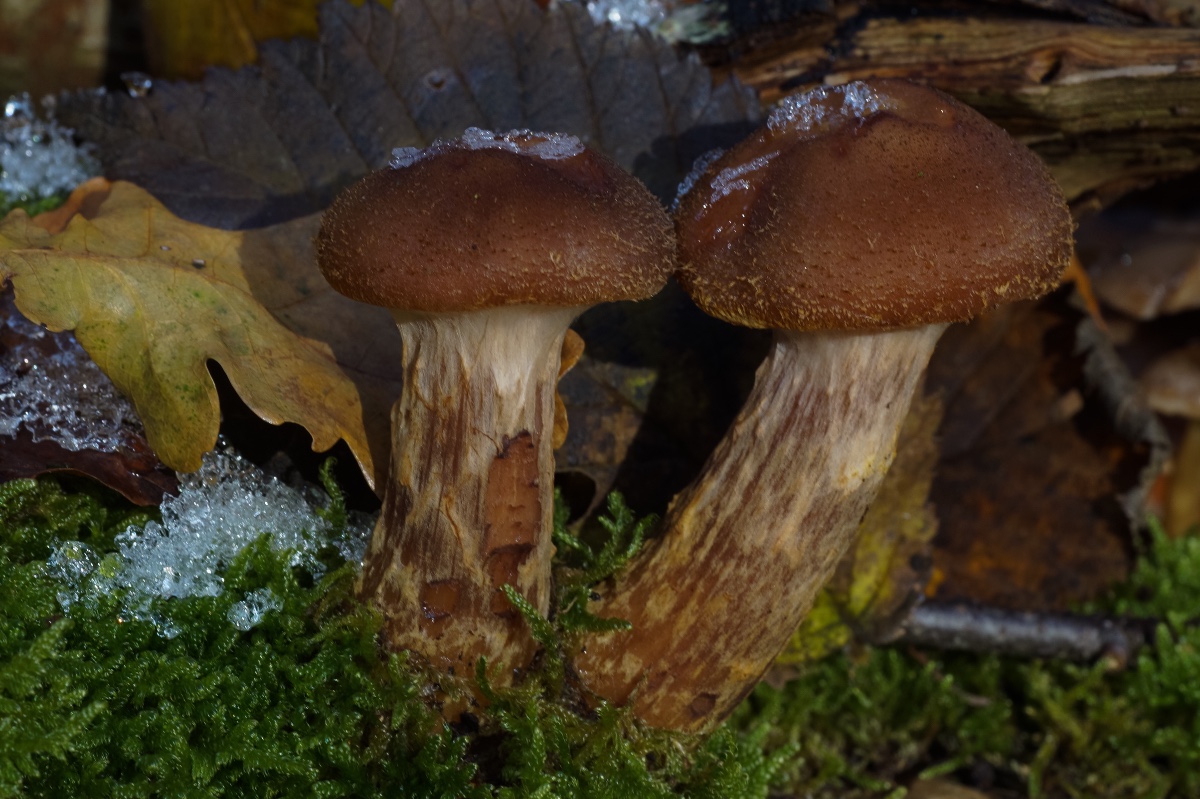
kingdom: Fungi
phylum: Basidiomycota
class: Agaricomycetes
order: Agaricales
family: Physalacriaceae
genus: Armillaria
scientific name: Armillaria lutea
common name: køllestokket honningsvamp
